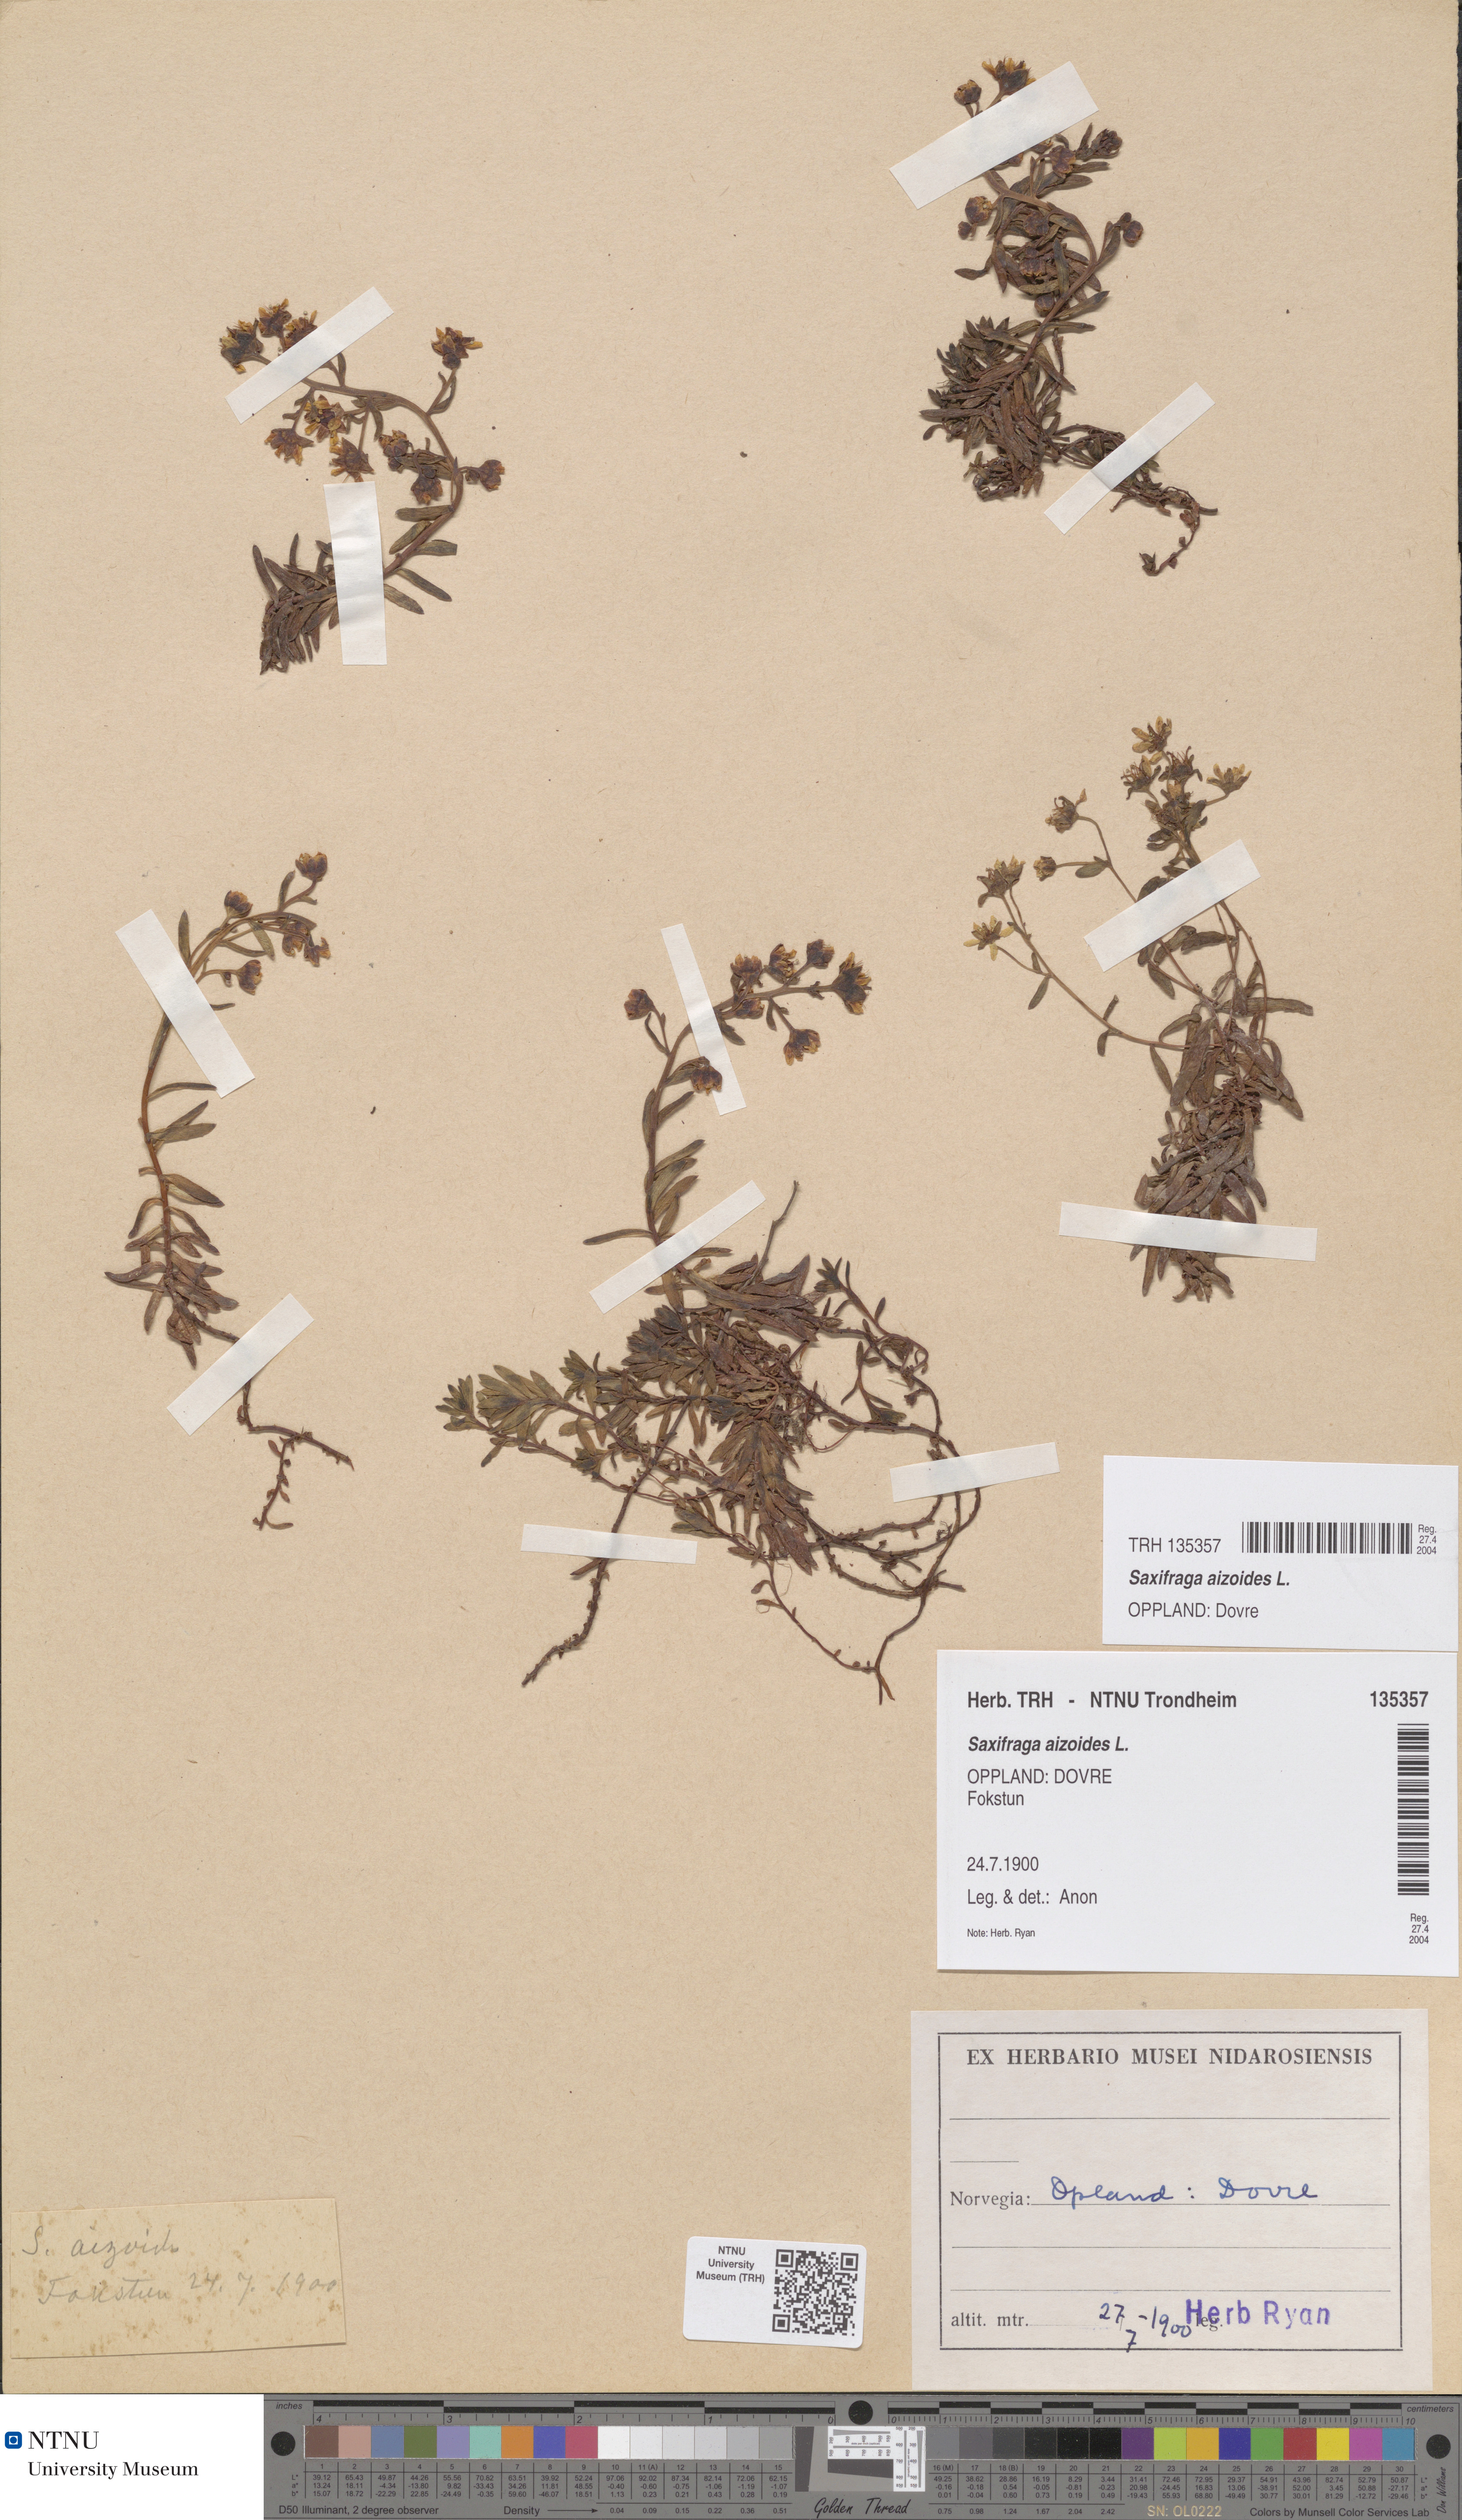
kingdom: Plantae
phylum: Tracheophyta
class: Magnoliopsida
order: Saxifragales
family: Saxifragaceae
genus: Saxifraga
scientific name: Saxifraga aizoides
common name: Yellow mountain saxifrage
